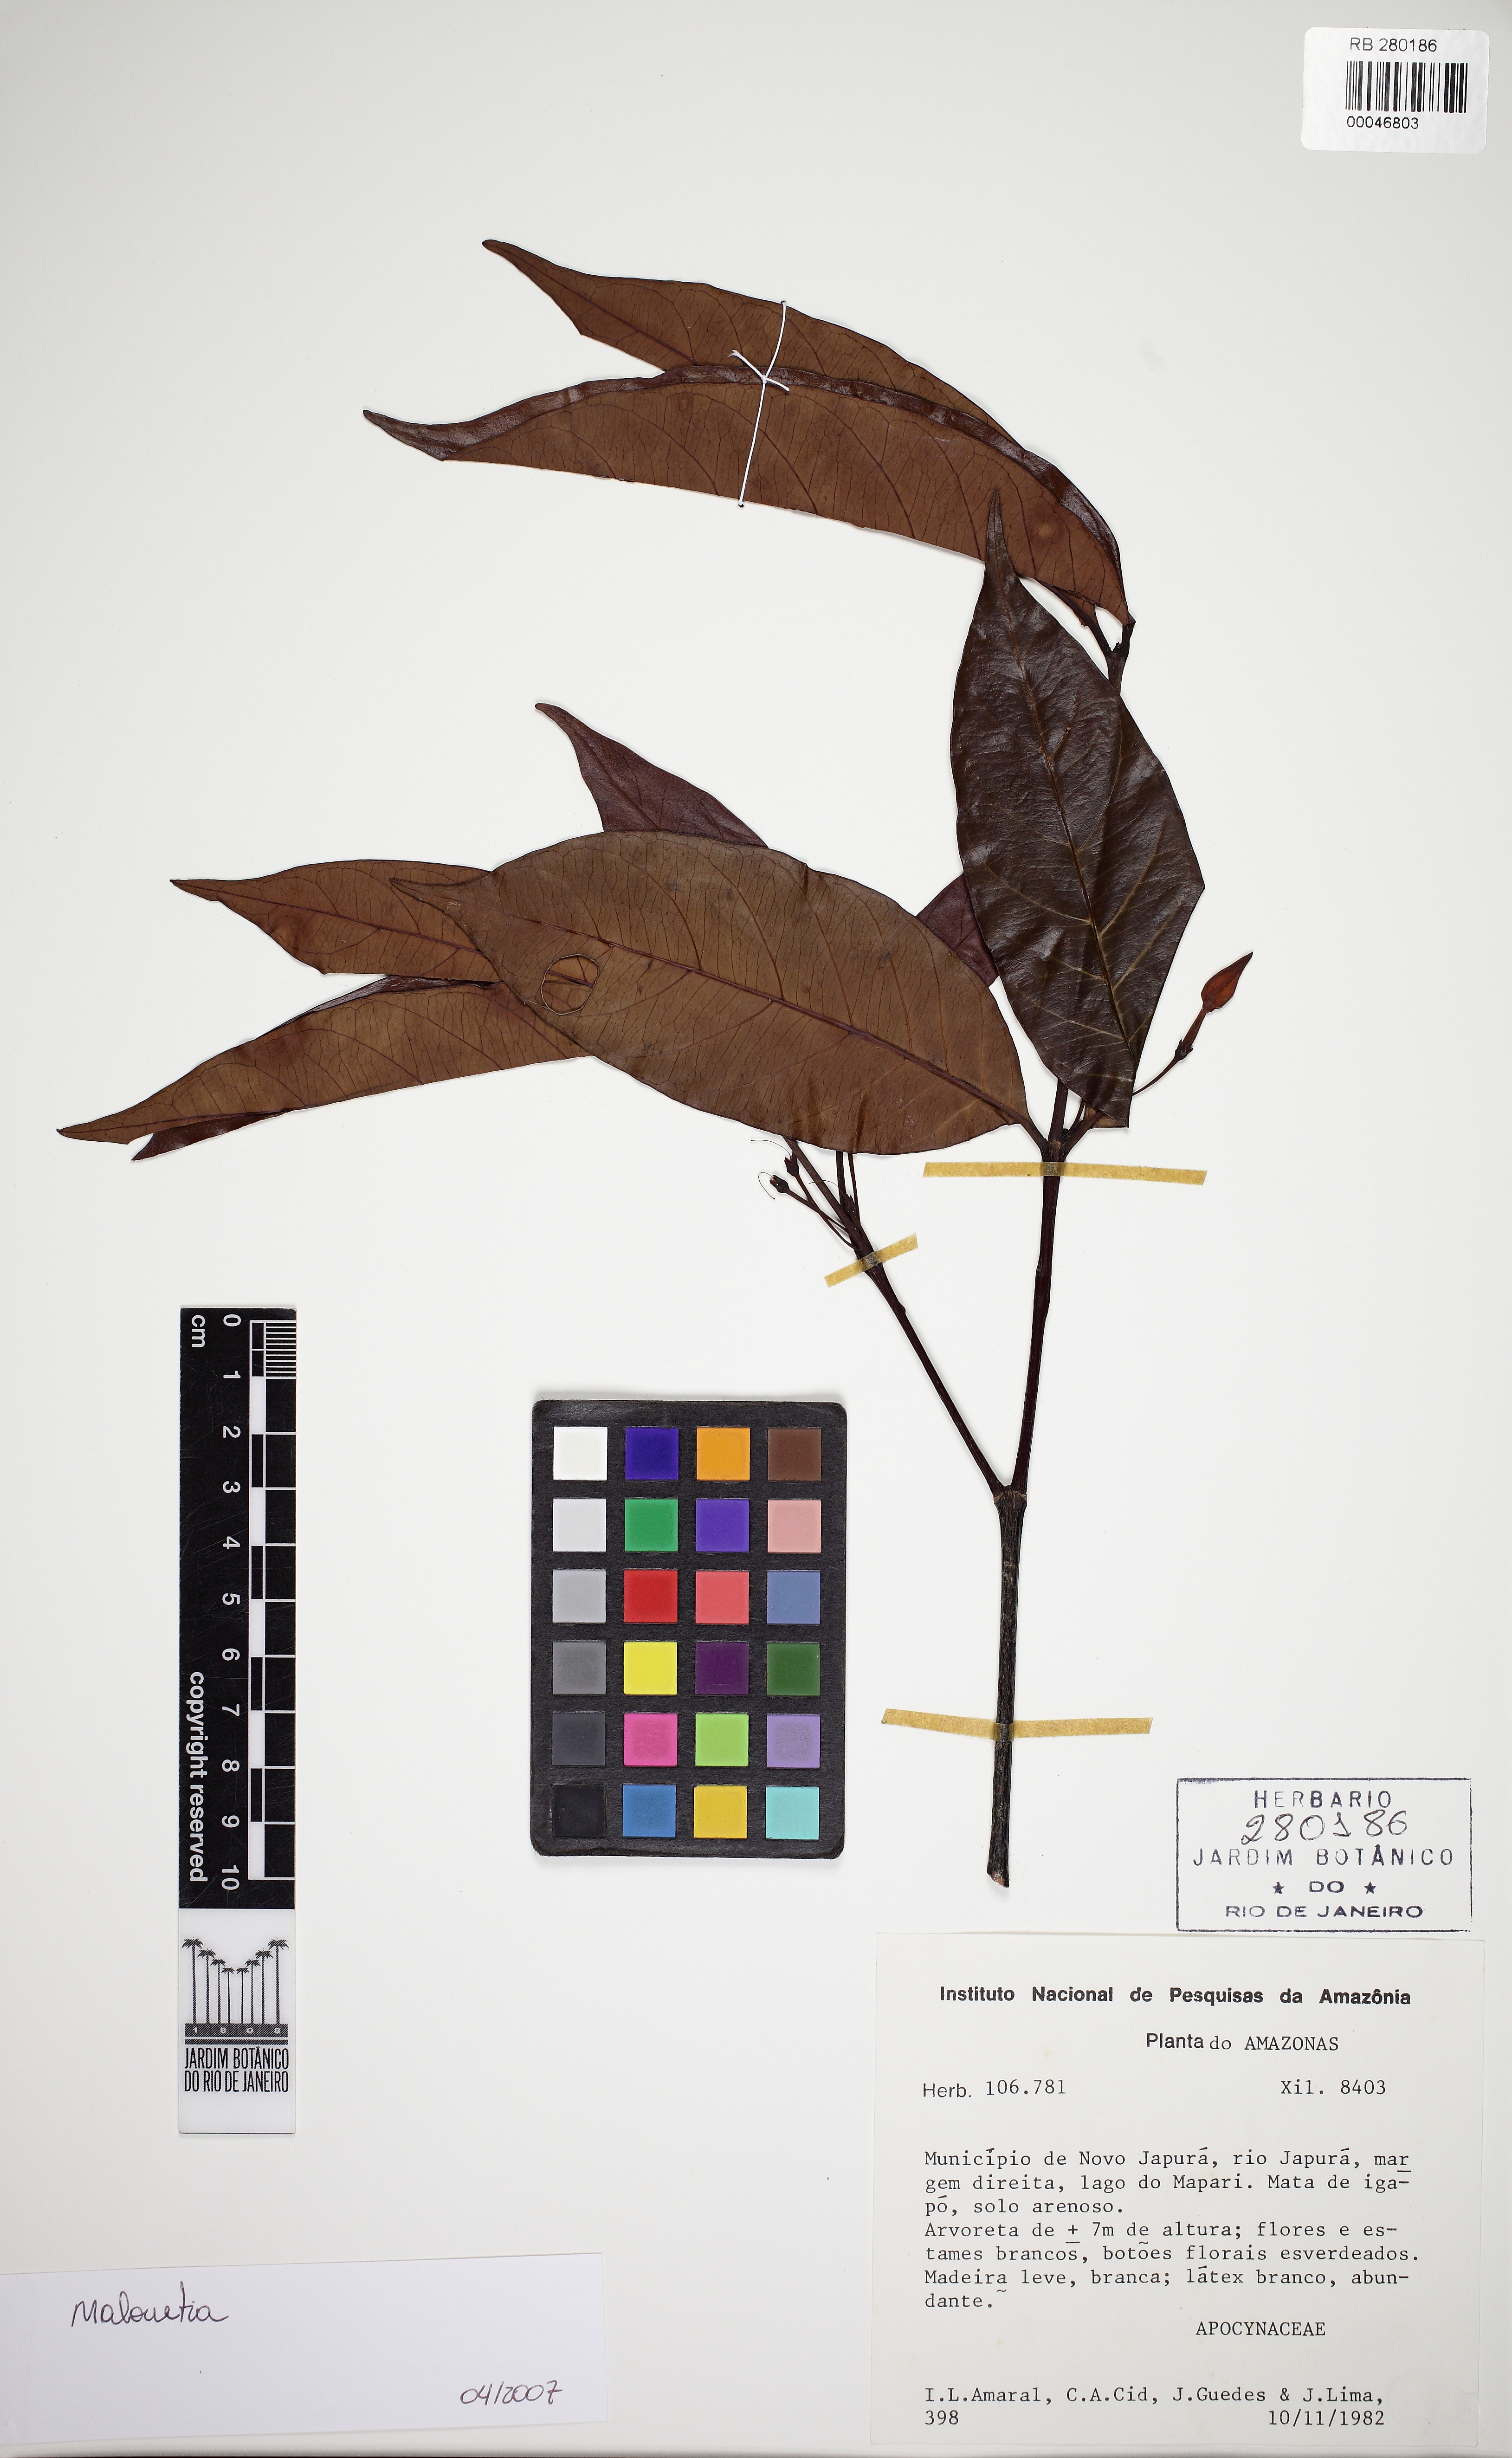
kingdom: Plantae
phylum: Tracheophyta
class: Magnoliopsida
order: Gentianales
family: Apocynaceae
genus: Malouetia
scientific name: Malouetia
